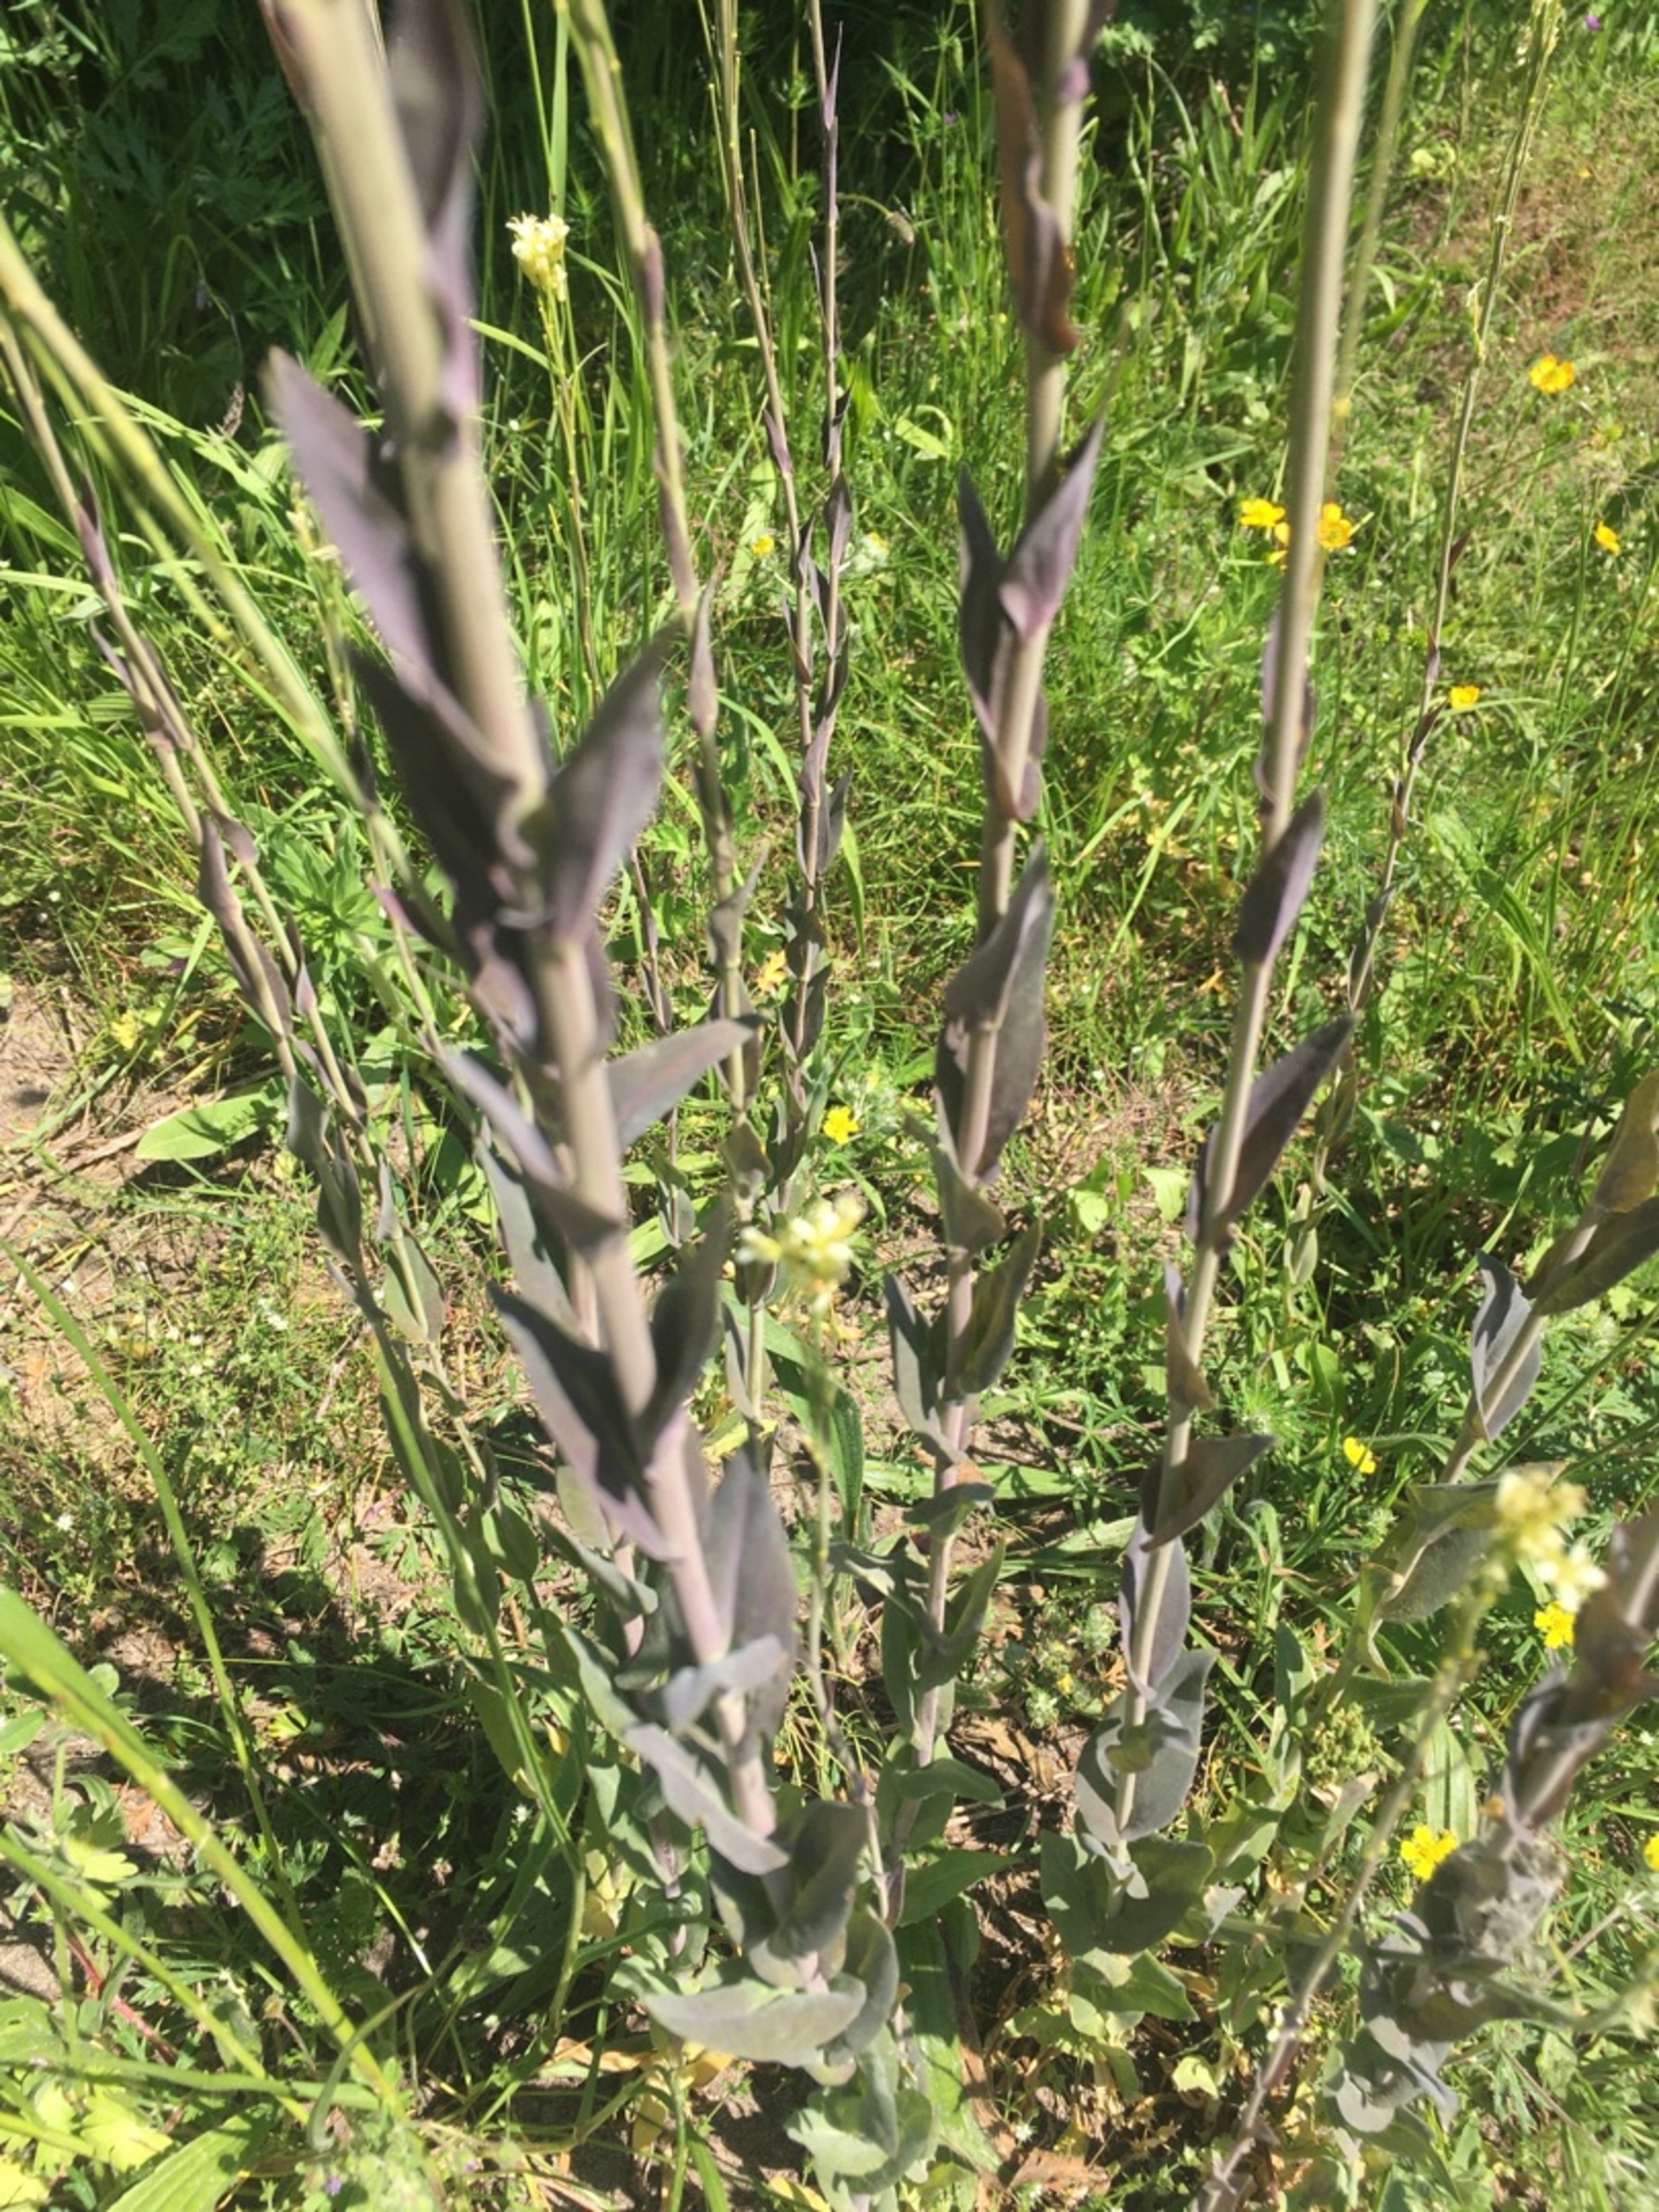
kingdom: Plantae
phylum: Tracheophyta
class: Magnoliopsida
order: Brassicales
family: Brassicaceae
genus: Turritis
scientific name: Turritis glabra
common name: Tårnurt
